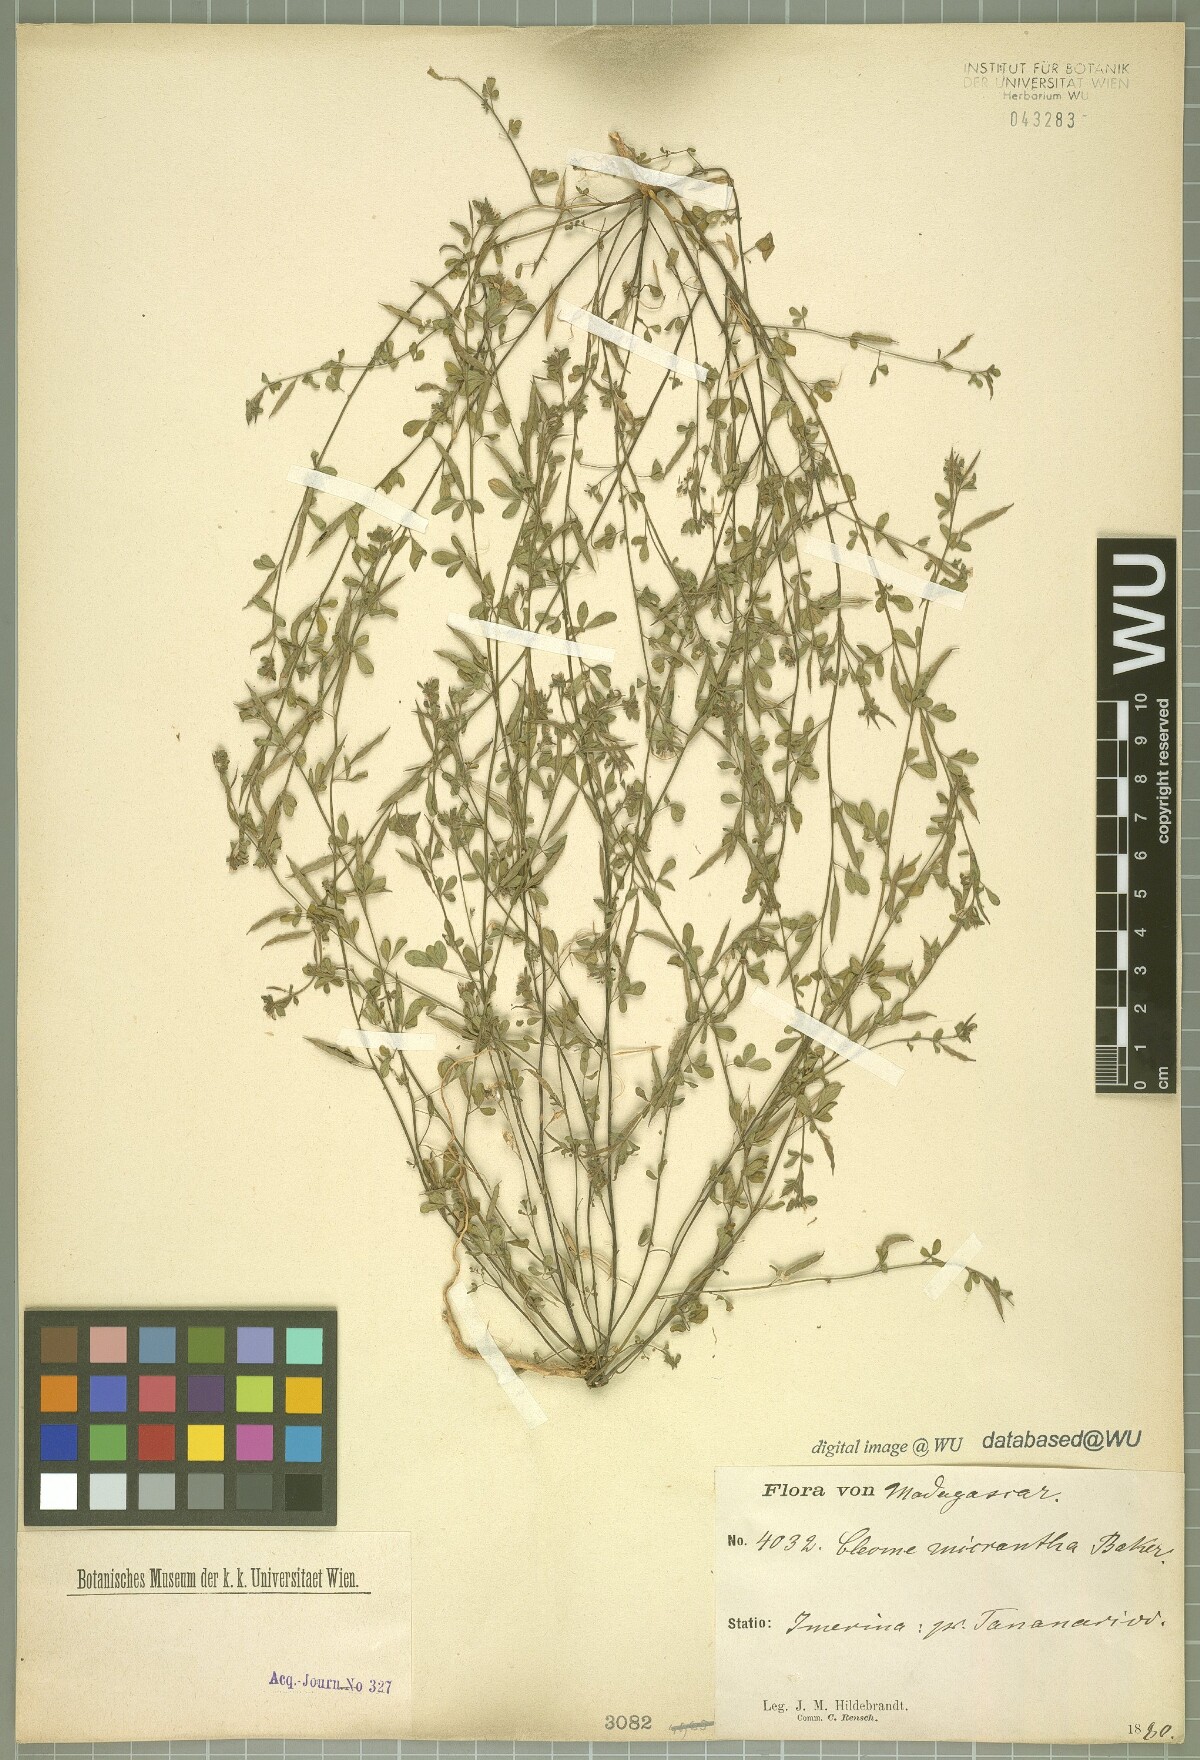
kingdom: Plantae
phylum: Tracheophyta
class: Magnoliopsida
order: Brassicales
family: Cleomaceae
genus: Tarenaya
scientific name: Tarenaya parviflora
